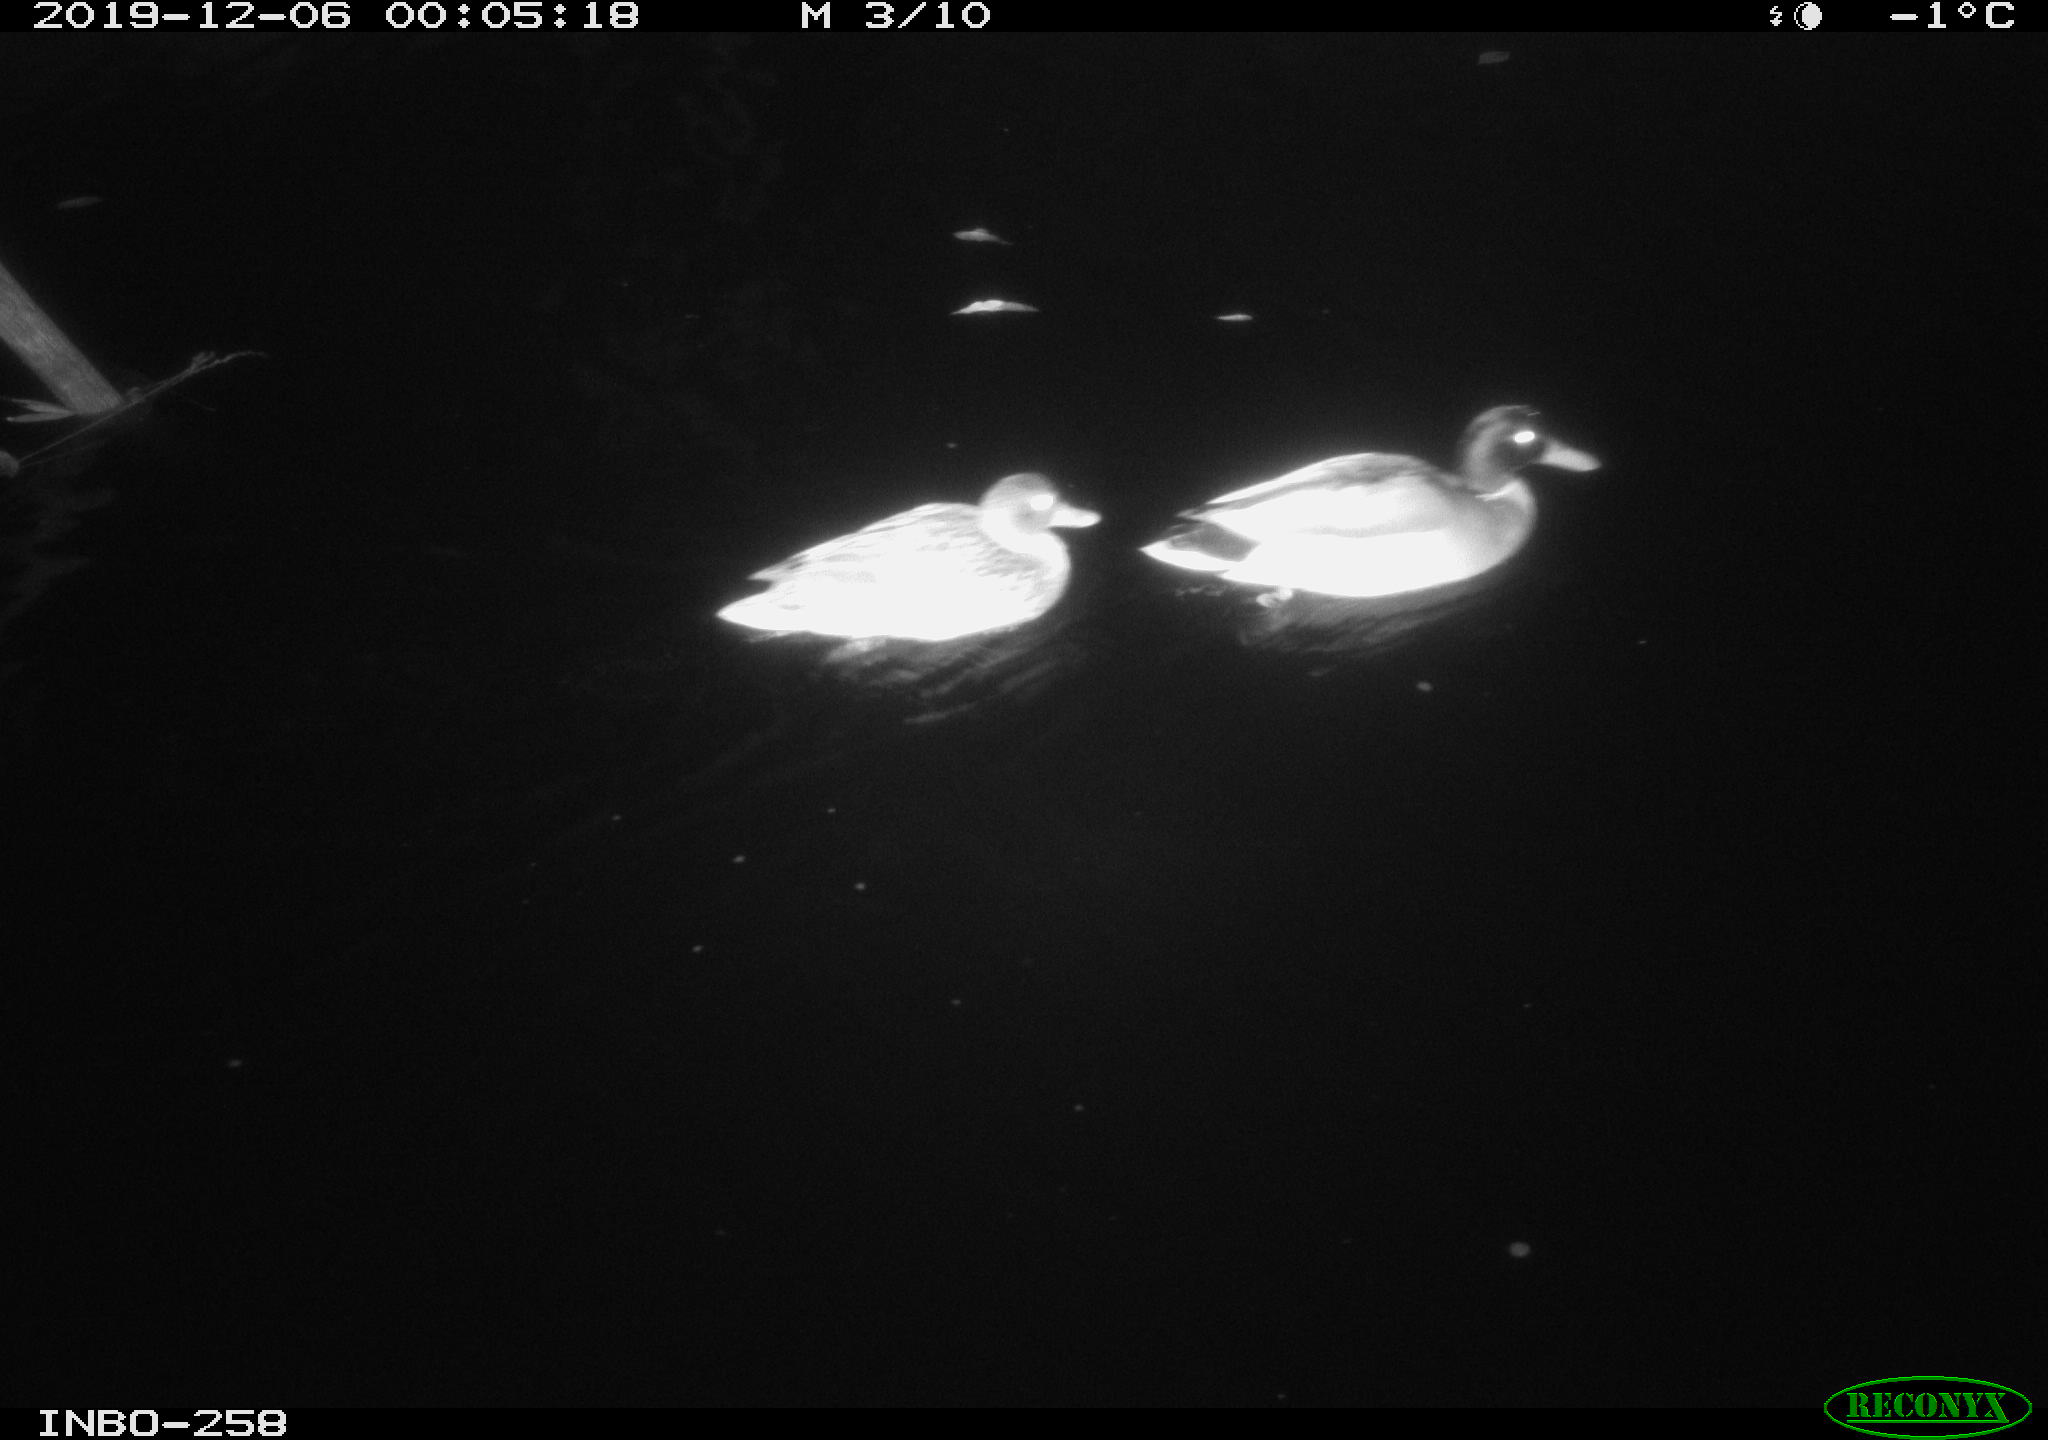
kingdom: Animalia
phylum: Chordata
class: Aves
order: Anseriformes
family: Anatidae
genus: Anas
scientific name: Anas platyrhynchos
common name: Mallard
